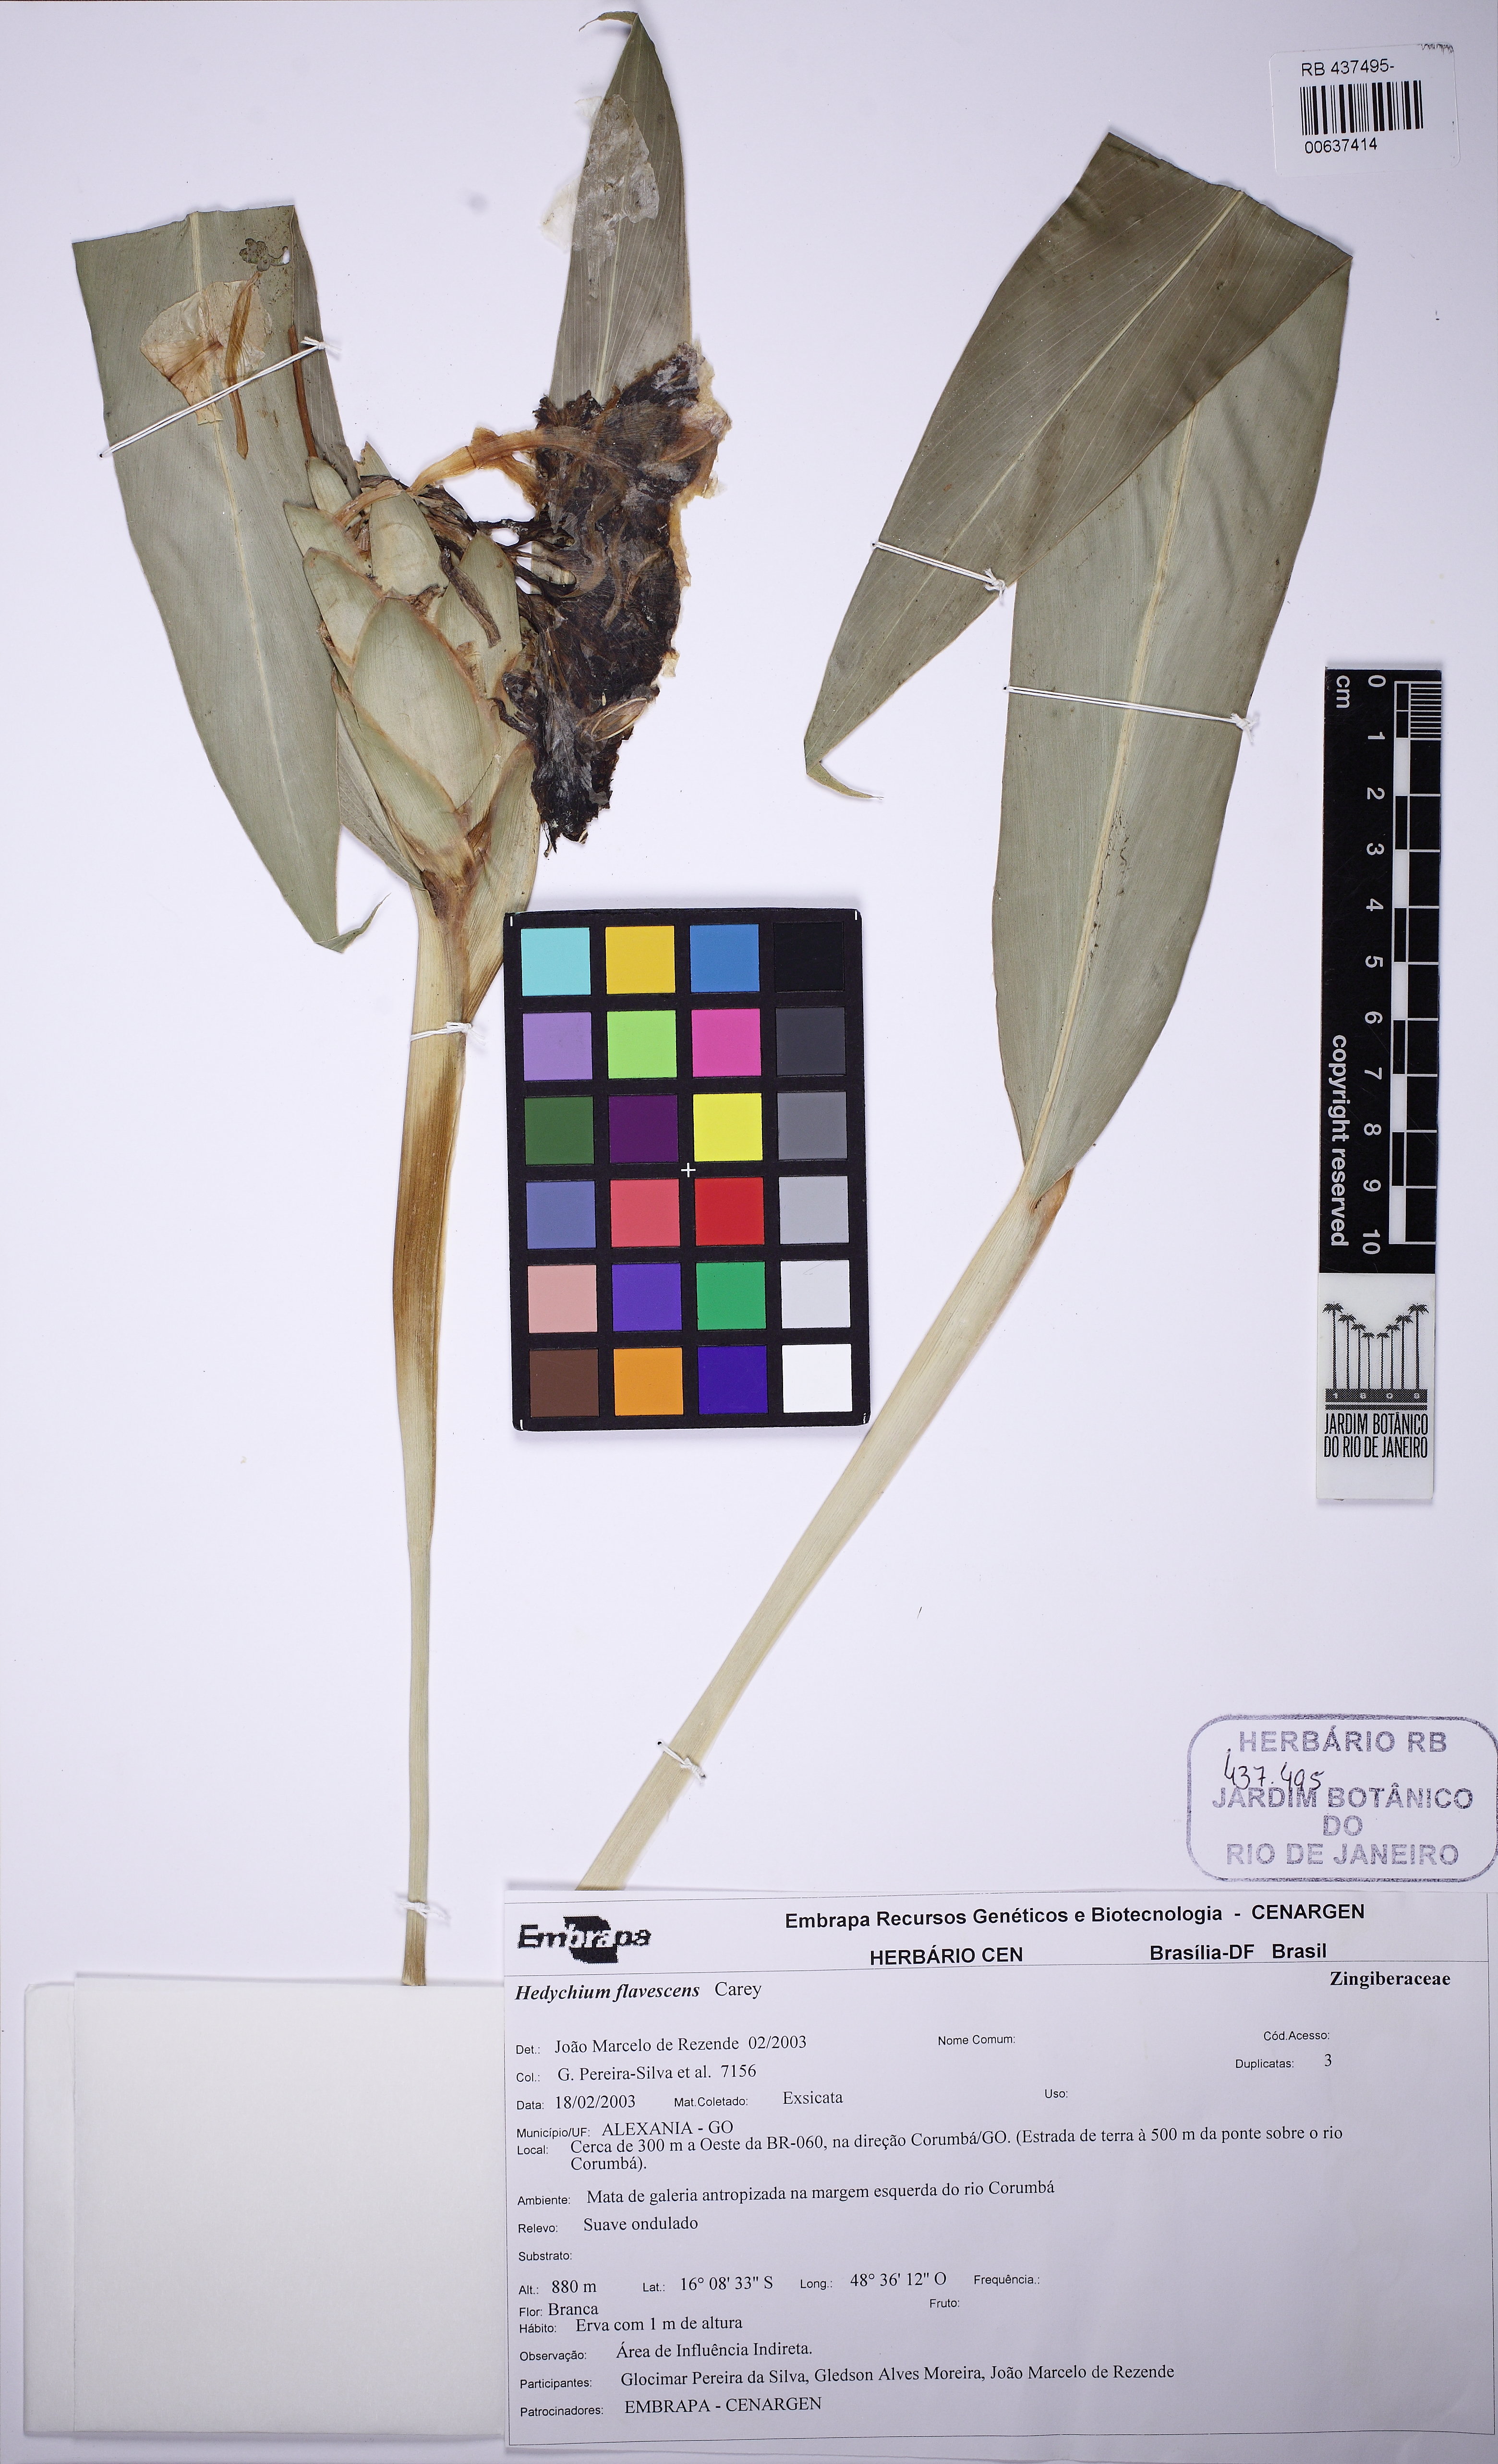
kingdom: Plantae
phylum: Tracheophyta
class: Liliopsida
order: Zingiberales
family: Zingiberaceae
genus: Hedychium
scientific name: Hedychium flavescens
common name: Yellow ginger
